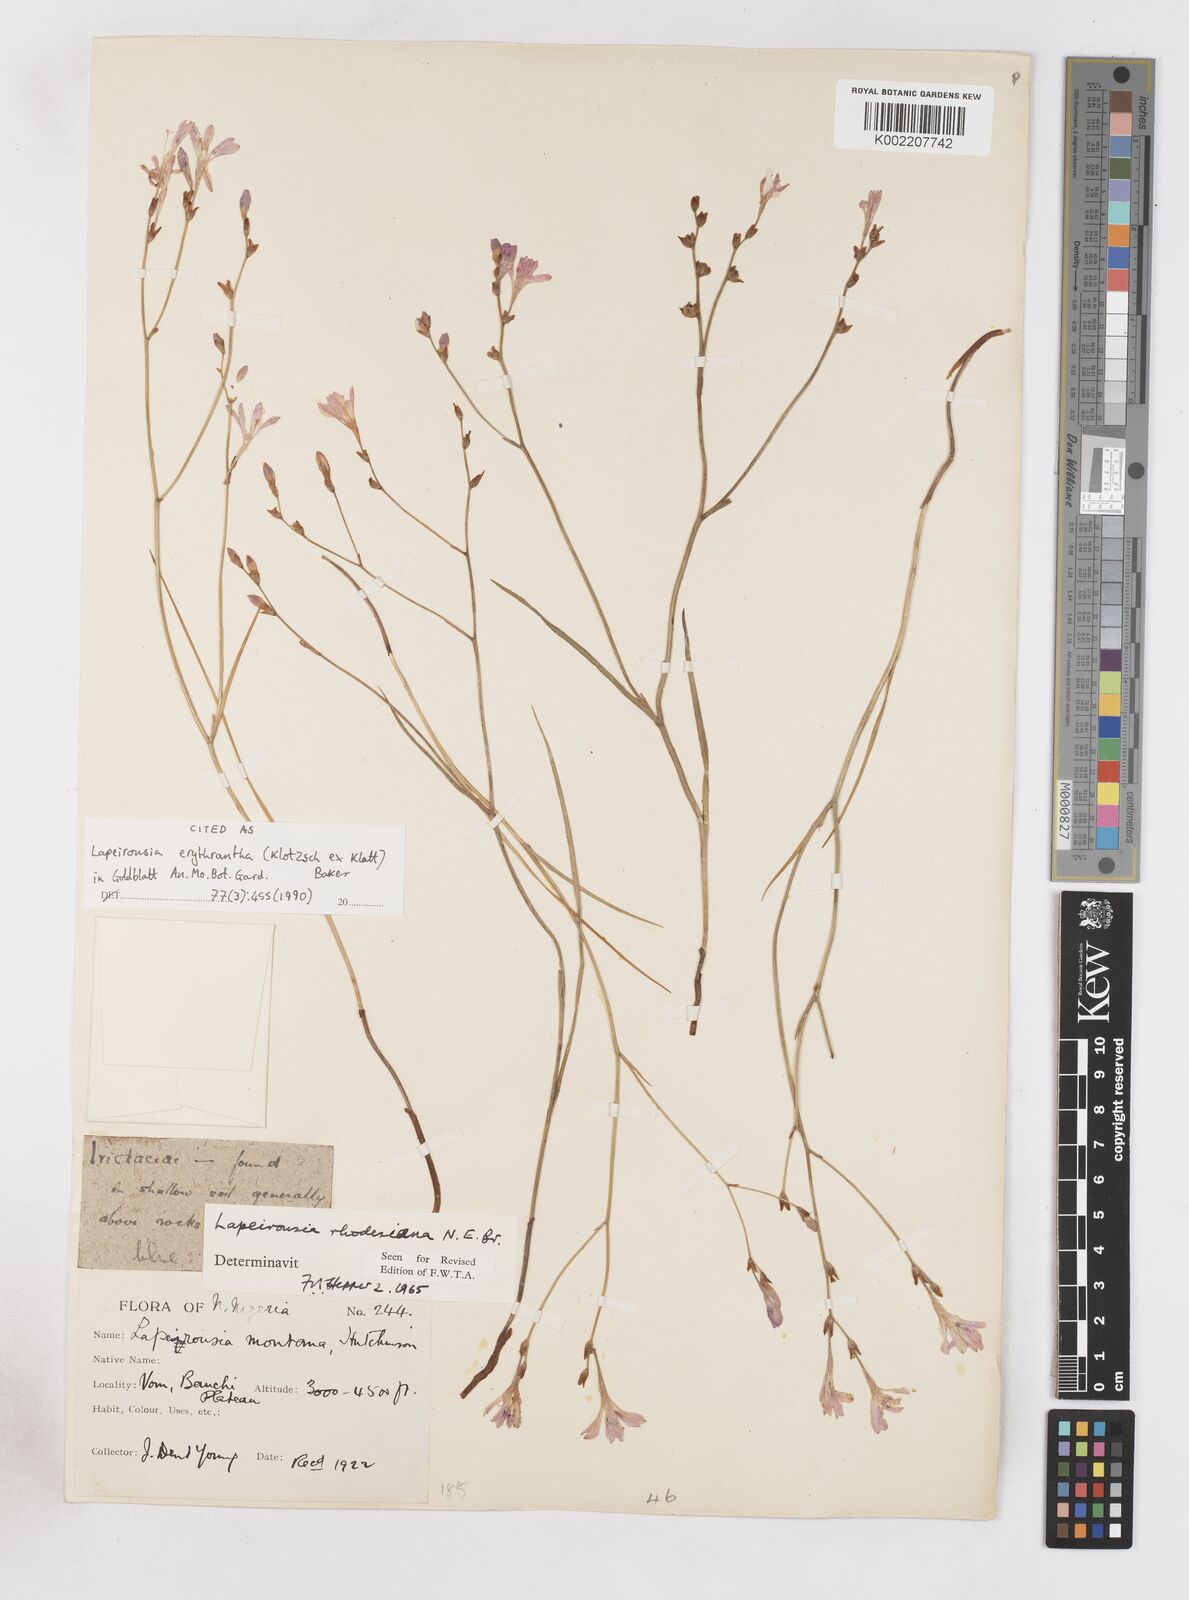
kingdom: Plantae
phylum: Tracheophyta
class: Liliopsida
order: Asparagales
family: Iridaceae
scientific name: Iridaceae
